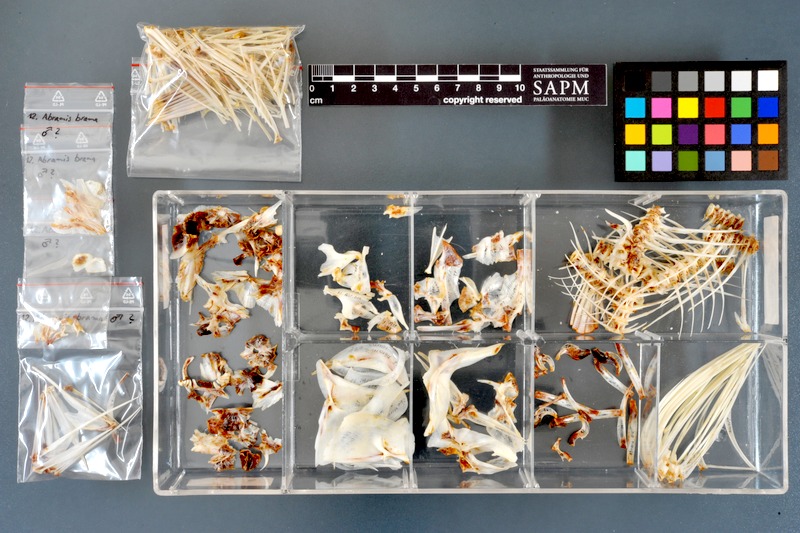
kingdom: Animalia
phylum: Chordata
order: Cypriniformes
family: Cyprinidae
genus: Abramis
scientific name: Abramis brama
